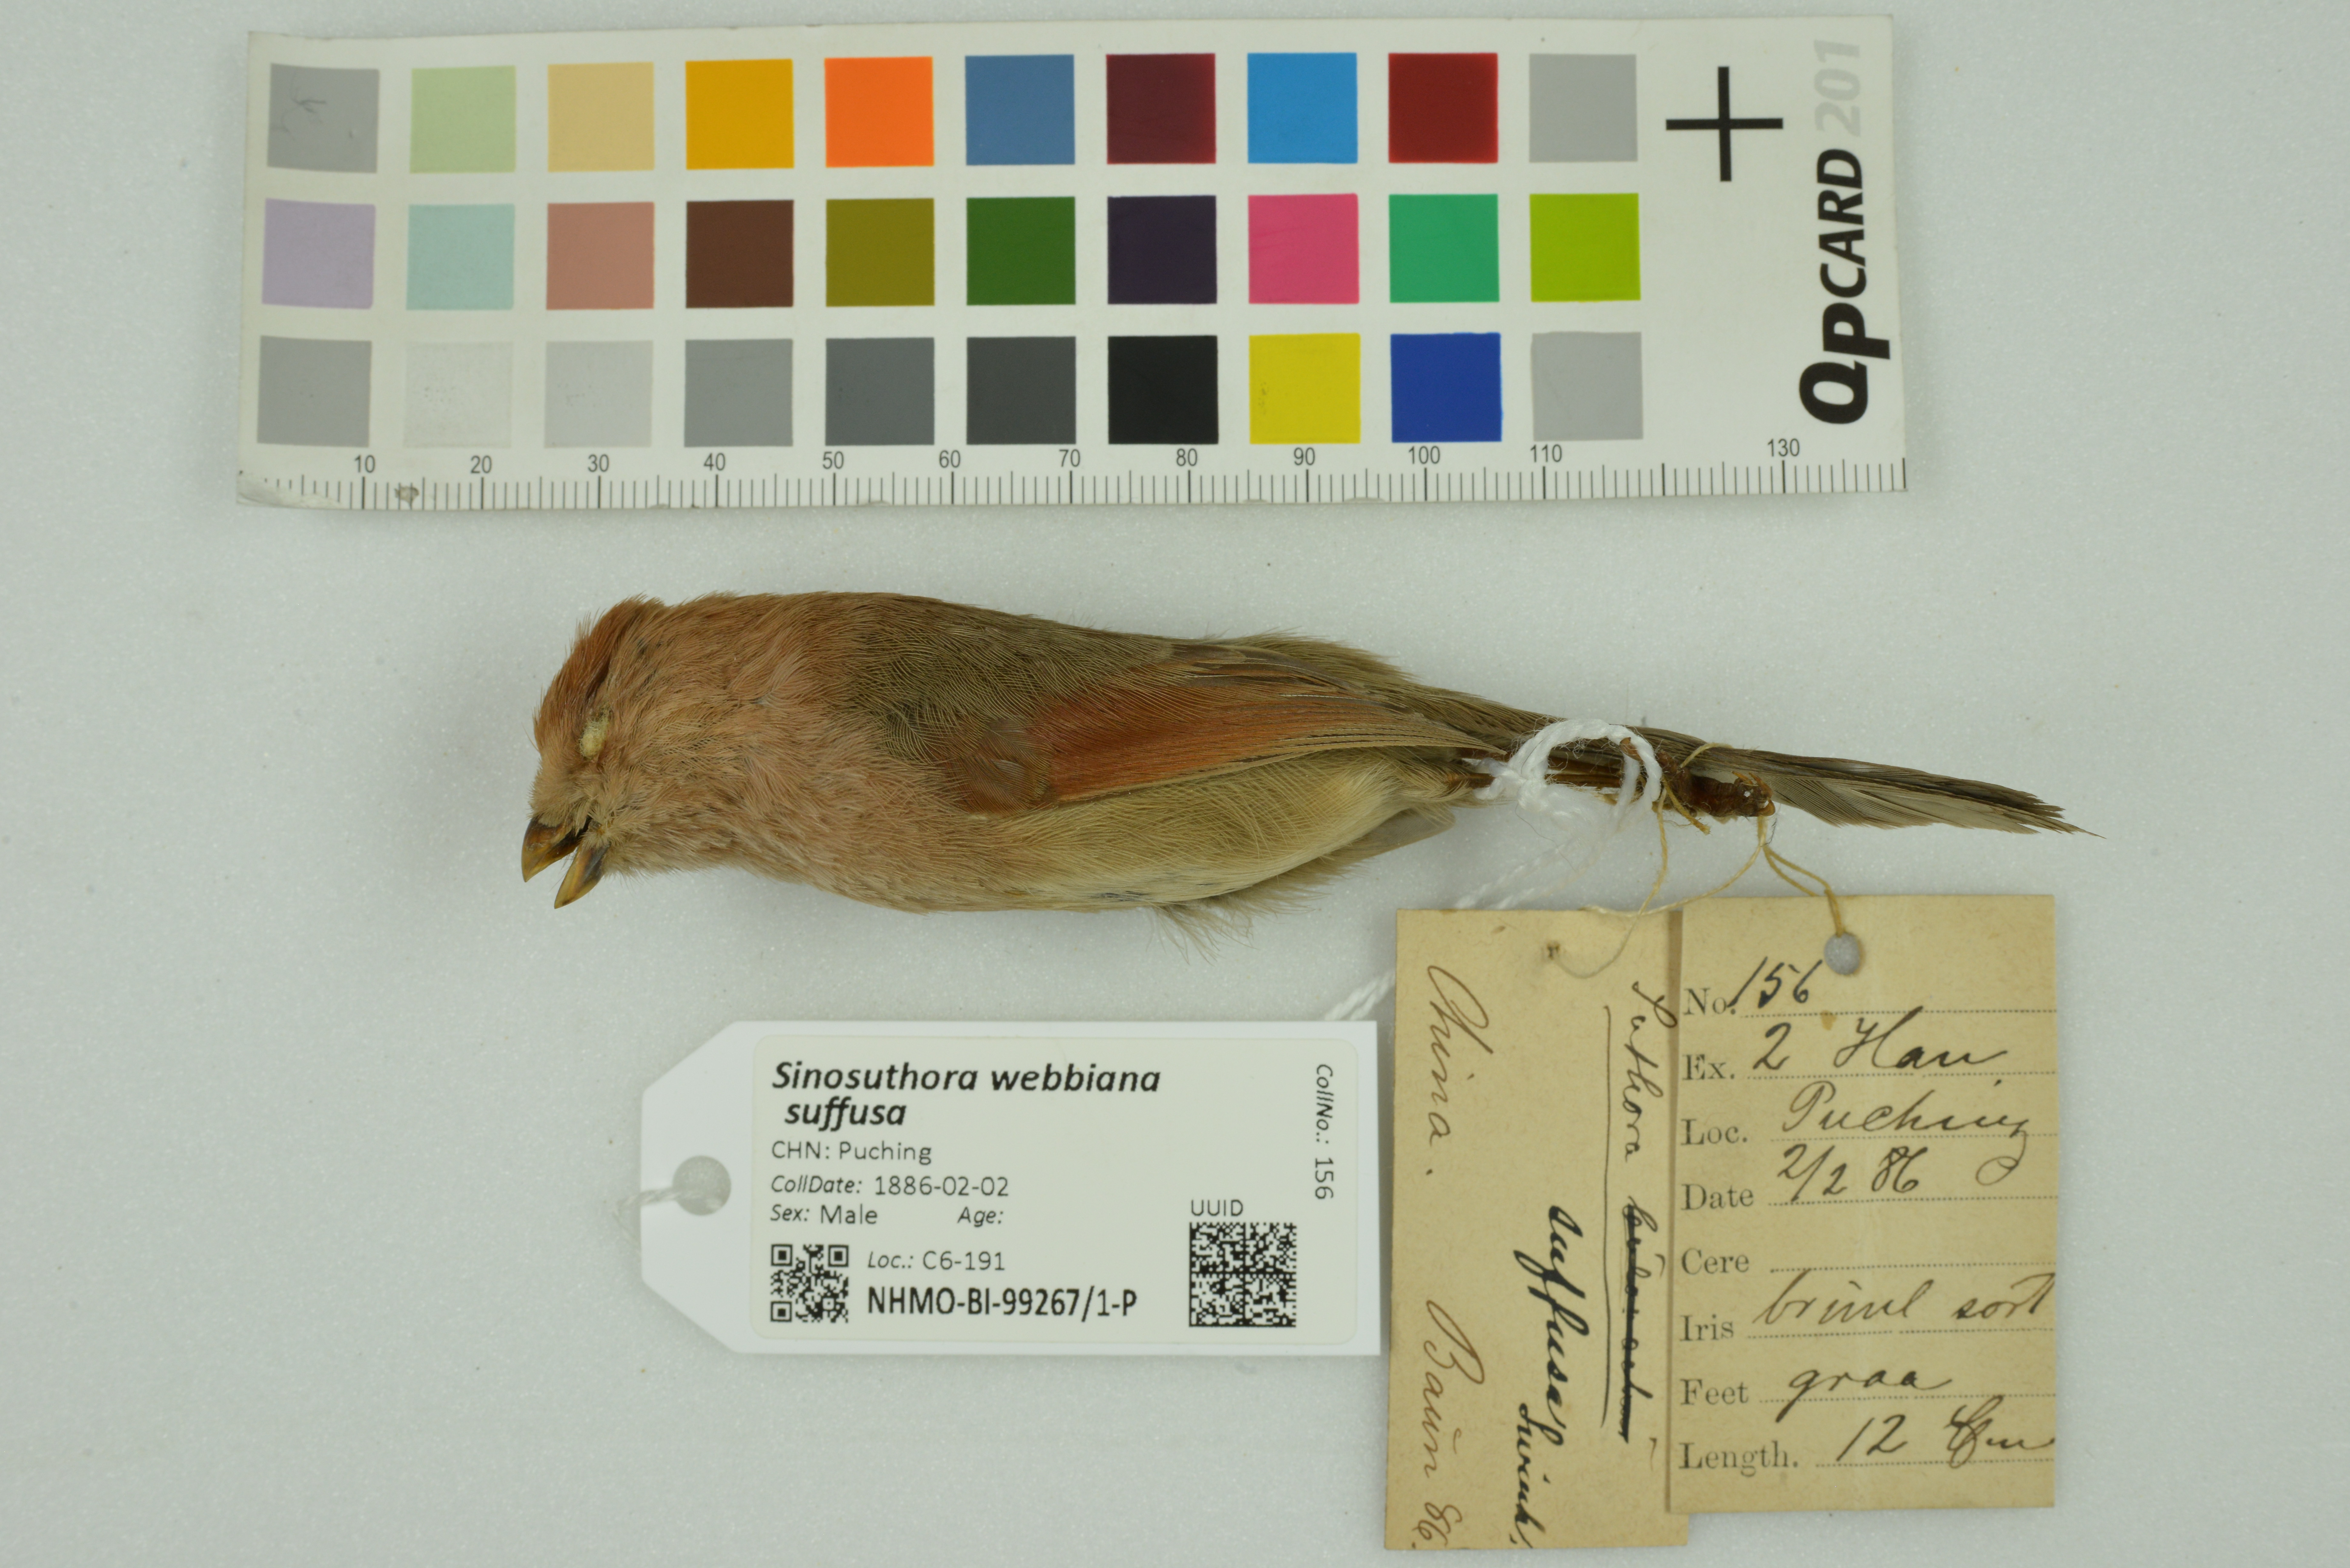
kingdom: Animalia
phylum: Chordata
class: Aves
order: Passeriformes
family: Sylviidae
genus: Sinosuthora
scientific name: Sinosuthora webbiana
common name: Vinous-throated parrotbill
